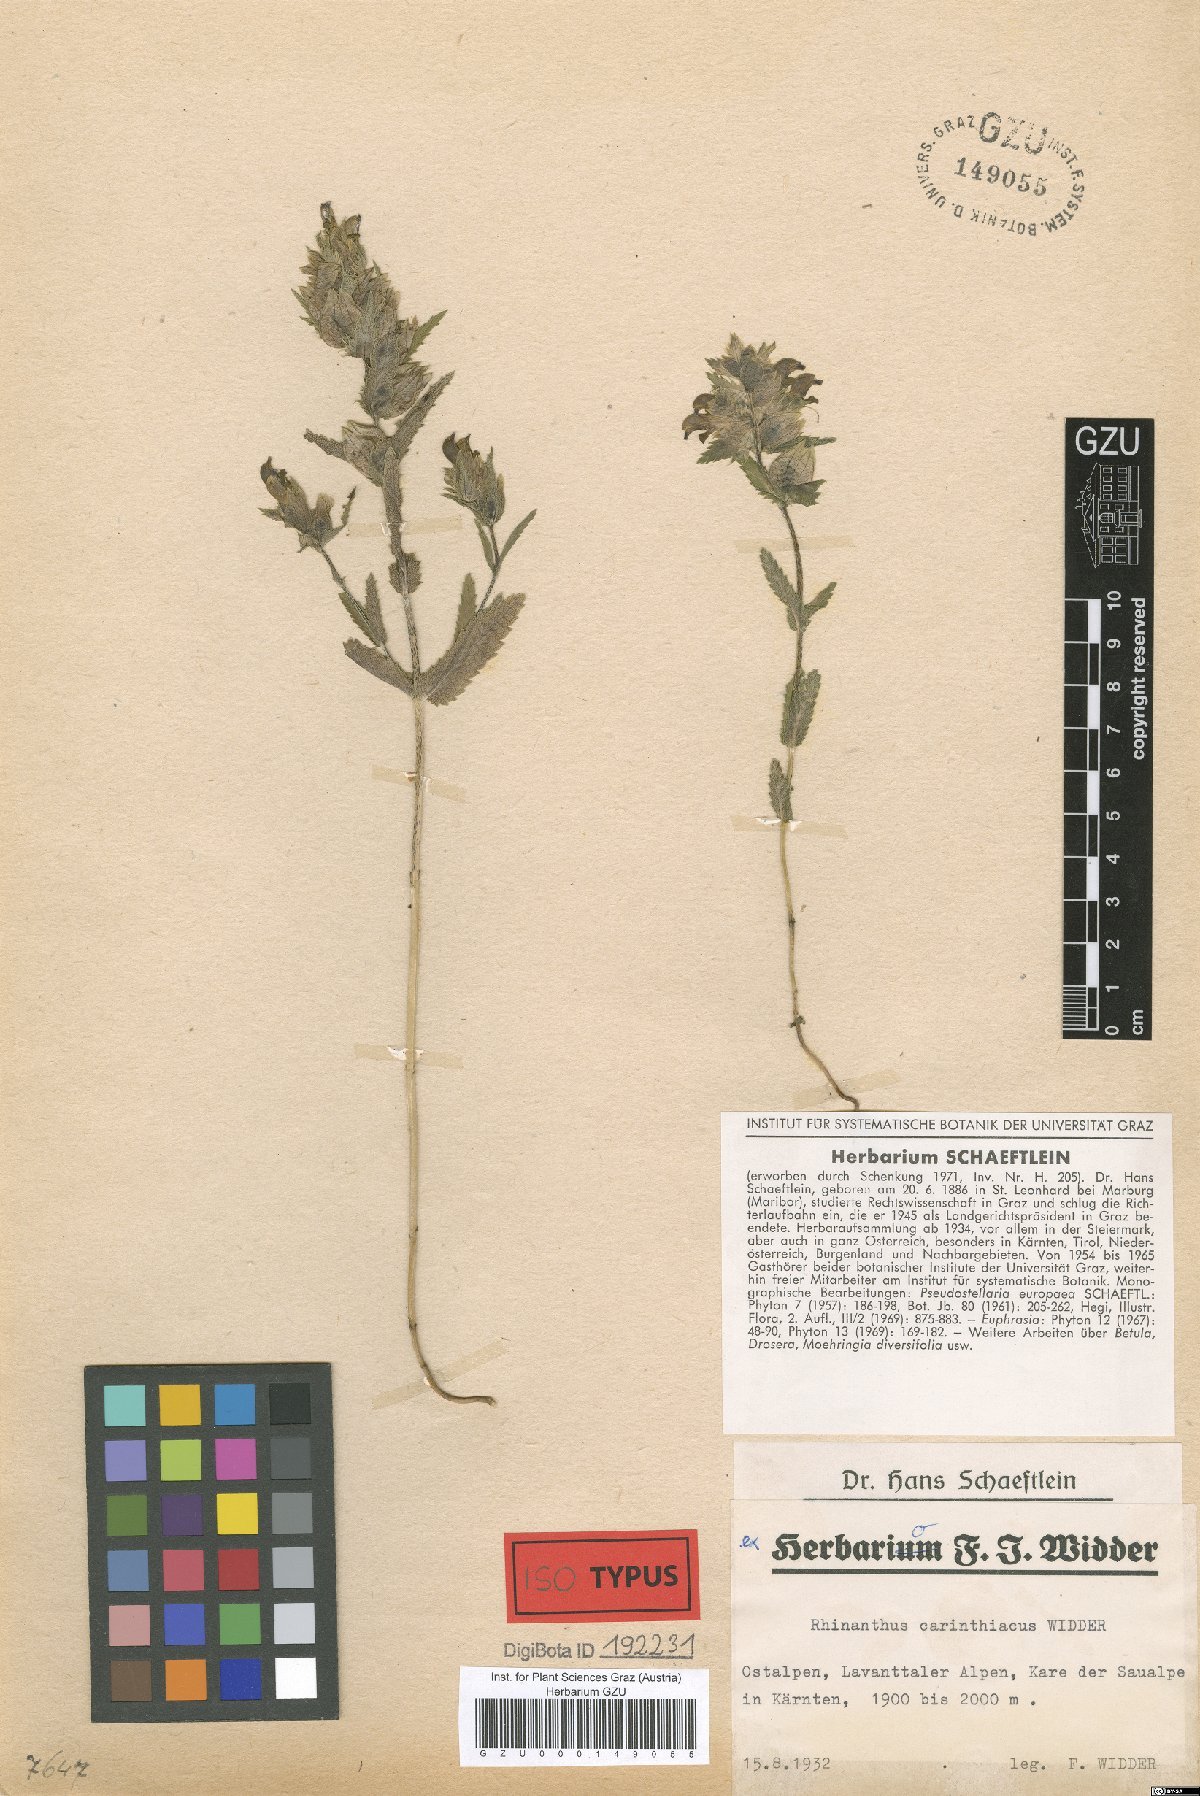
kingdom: Plantae
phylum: Tracheophyta
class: Magnoliopsida
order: Lamiales
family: Orobanchaceae
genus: Rhinanthus
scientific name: Rhinanthus carinthiacus
